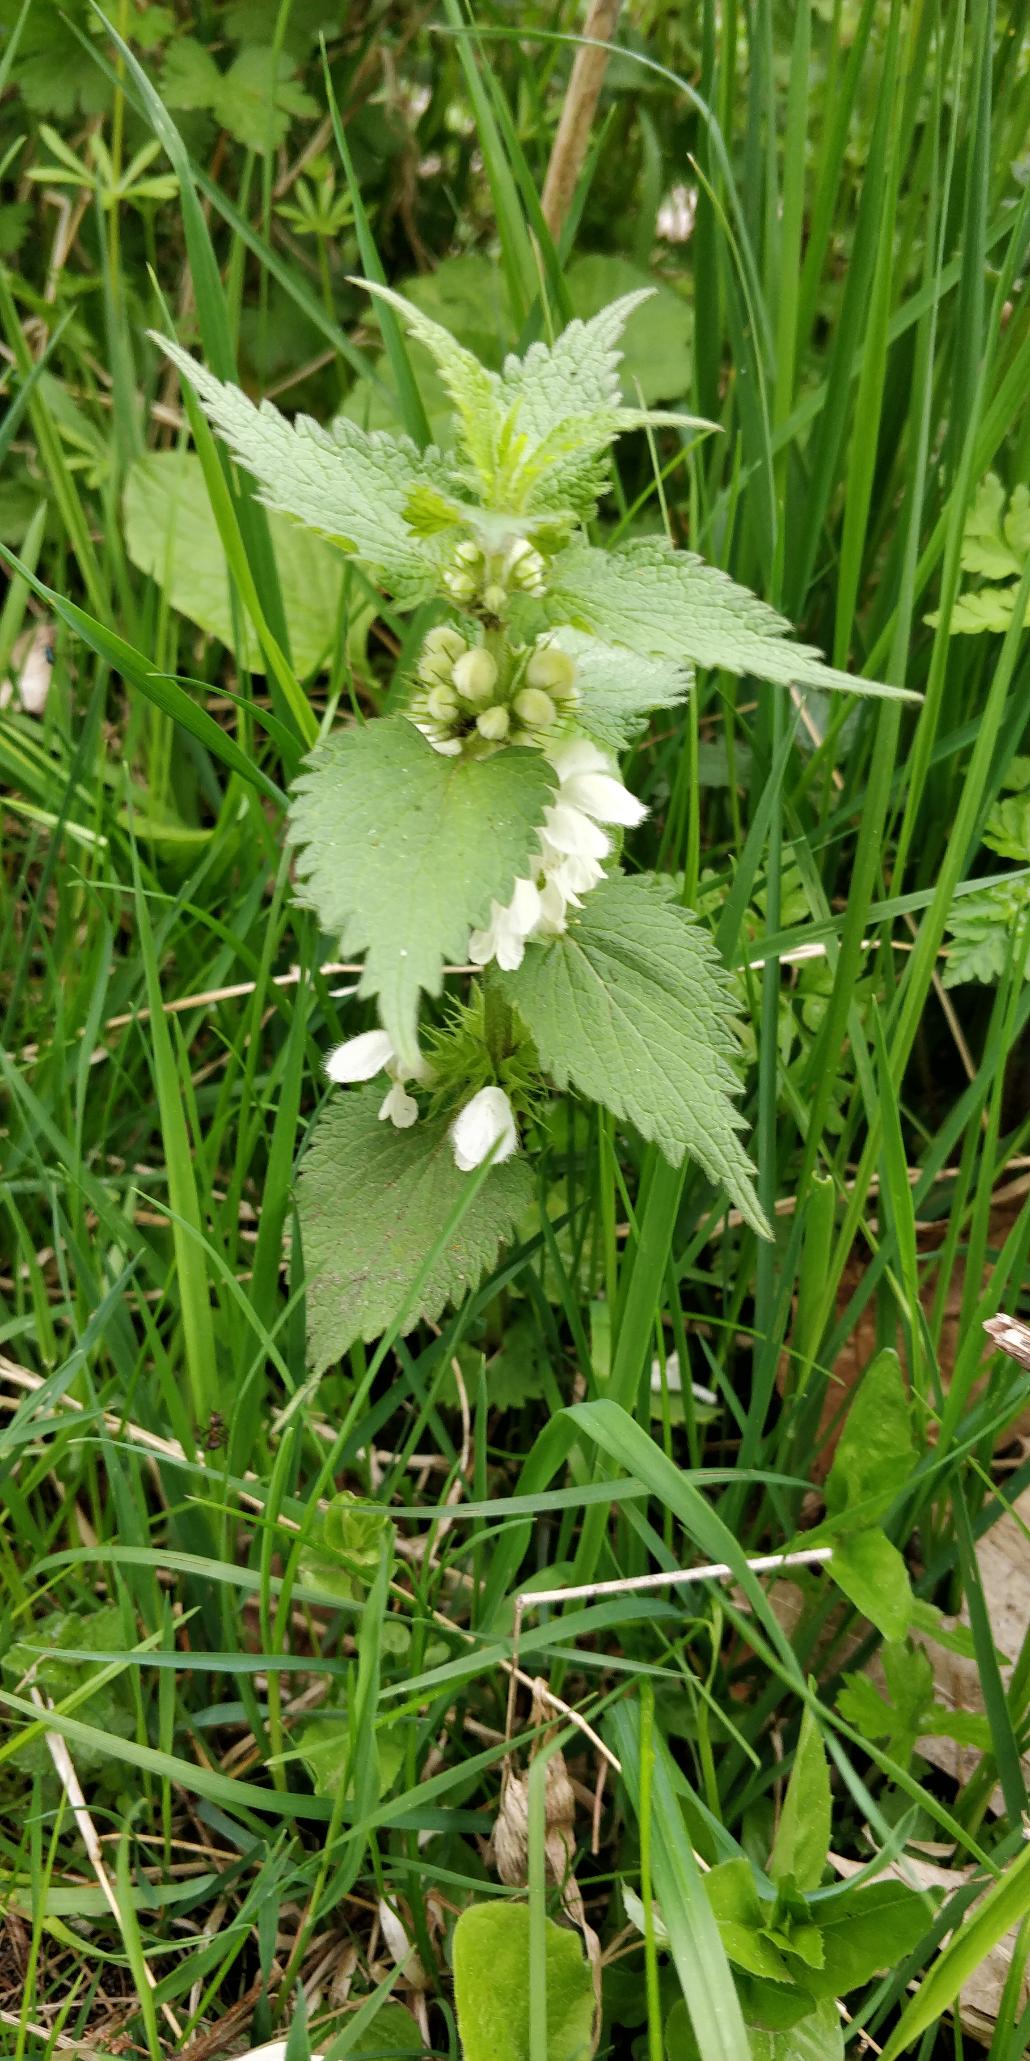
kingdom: Plantae
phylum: Tracheophyta
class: Magnoliopsida
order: Lamiales
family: Lamiaceae
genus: Lamium
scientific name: Lamium album
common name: Døvnælde
